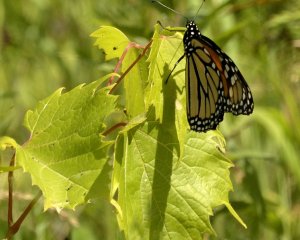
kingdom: Animalia
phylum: Arthropoda
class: Insecta
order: Lepidoptera
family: Nymphalidae
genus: Danaus
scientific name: Danaus plexippus
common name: Monarch
